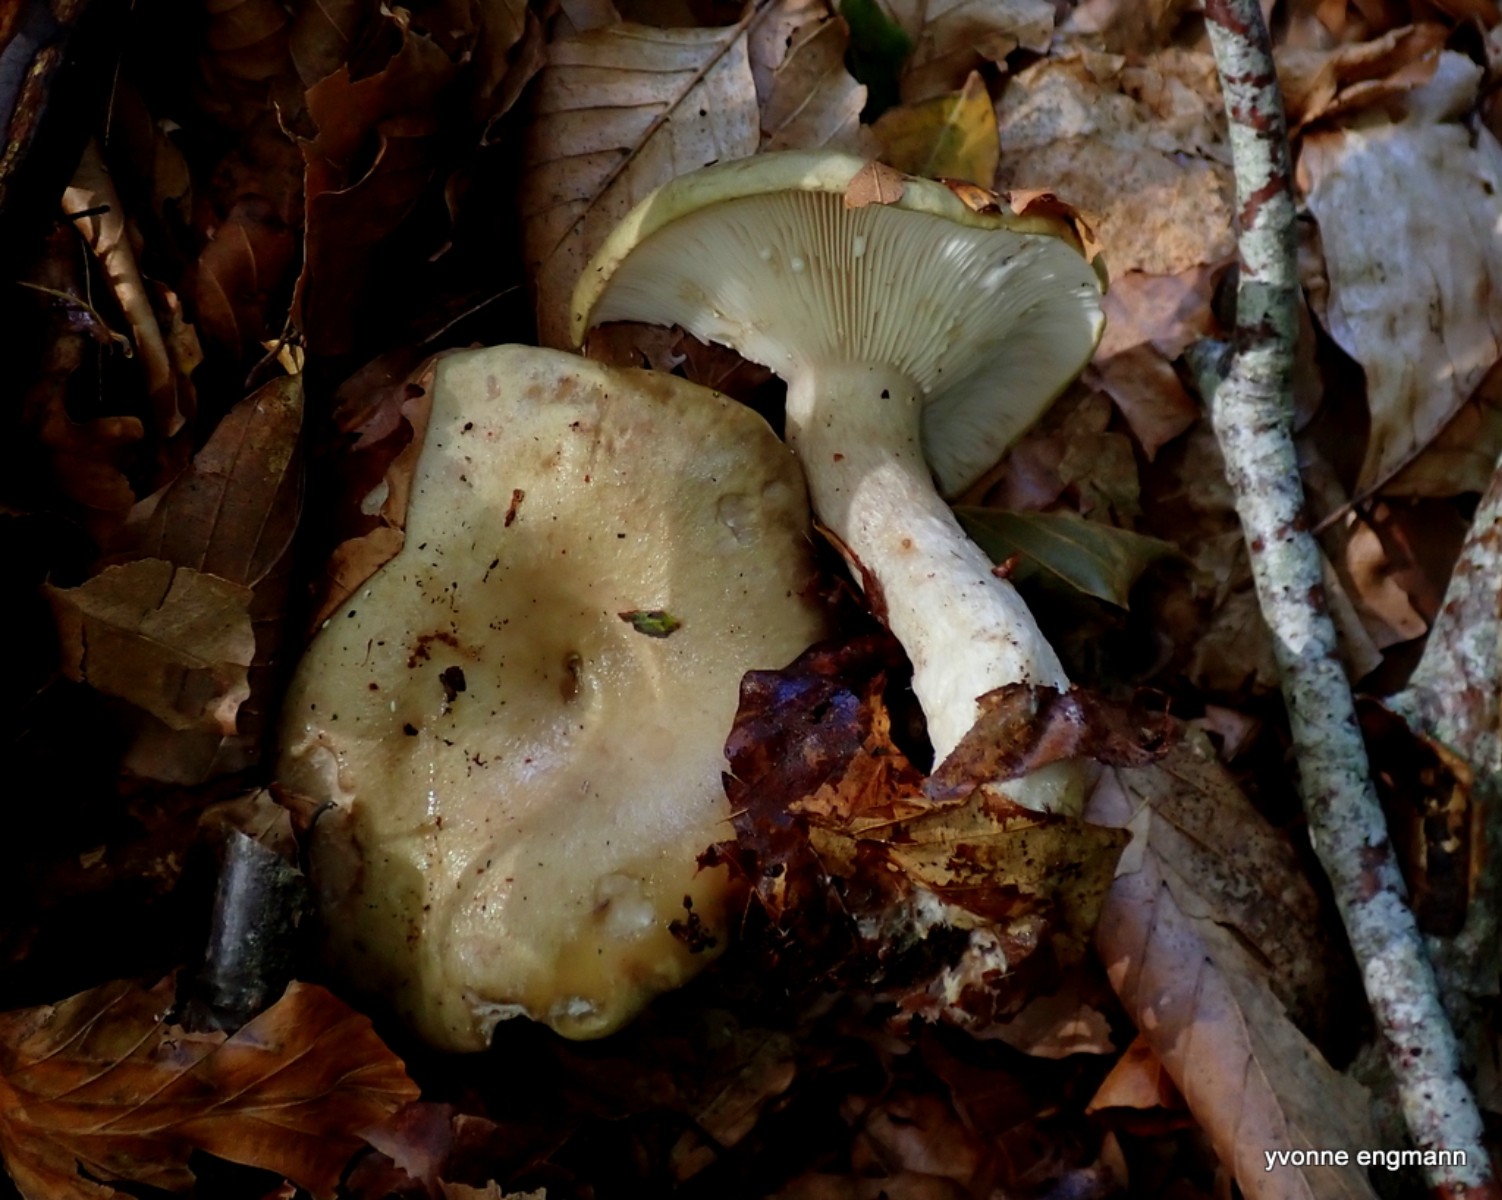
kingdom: Fungi
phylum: Basidiomycota
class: Agaricomycetes
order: Russulales
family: Russulaceae
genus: Lactarius
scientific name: Lactarius blennius
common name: dråbeplettet mælkehat
